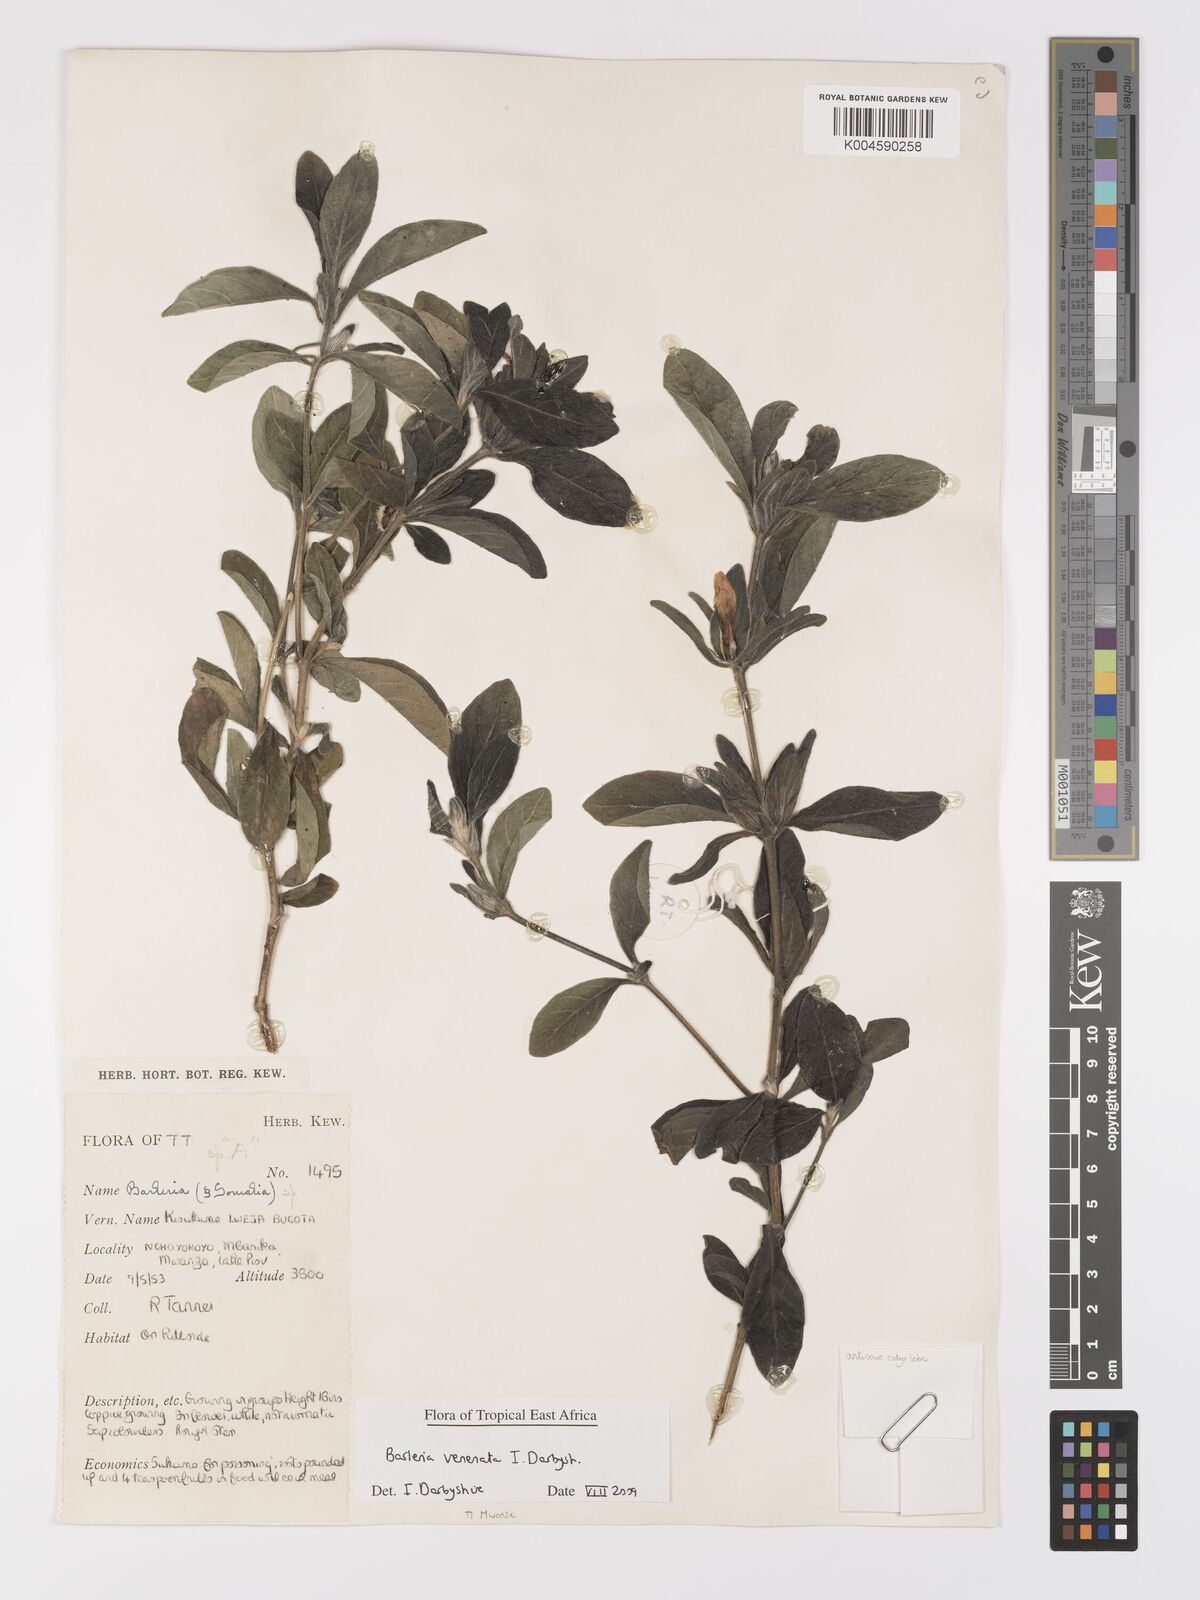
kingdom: Plantae
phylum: Tracheophyta
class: Magnoliopsida
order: Lamiales
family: Acanthaceae
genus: Barleria
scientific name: Barleria venenata
